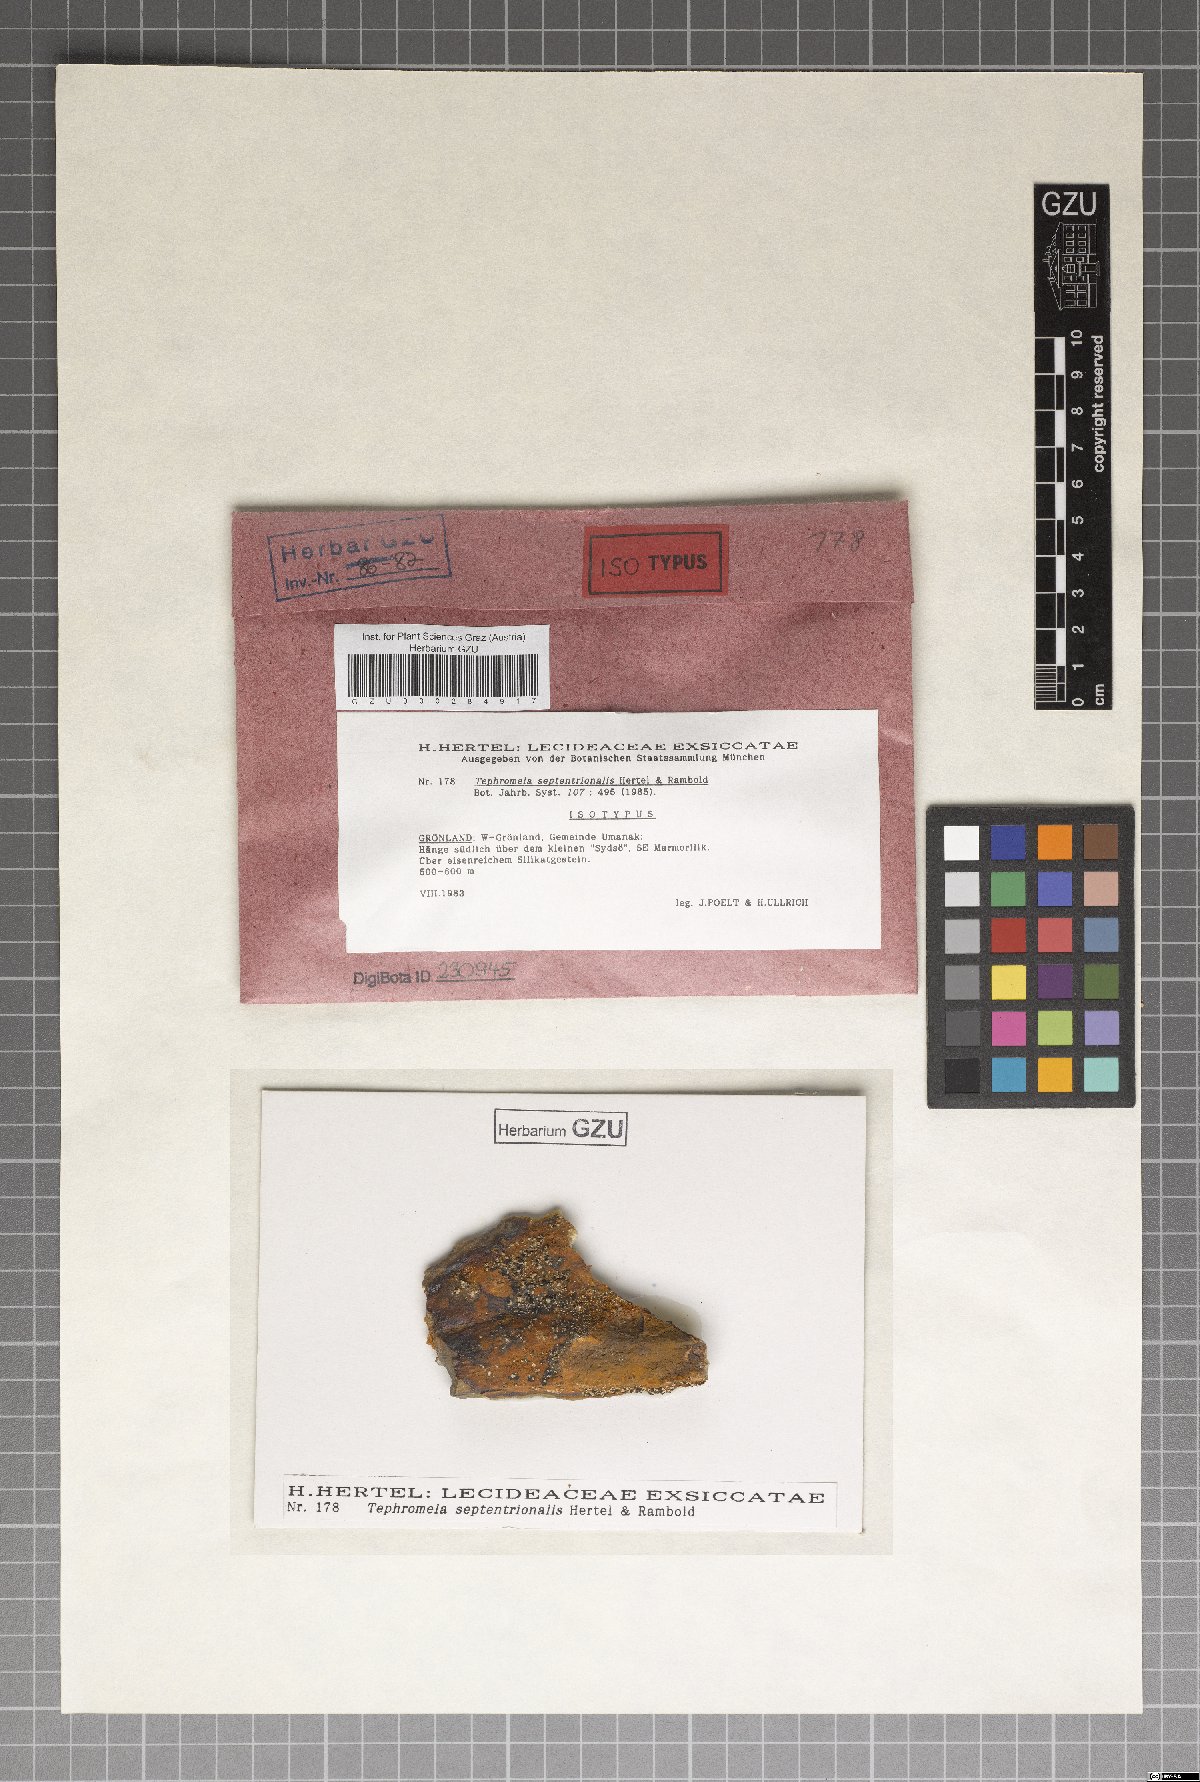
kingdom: Fungi
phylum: Ascomycota
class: Lecanoromycetes
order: Lecanorales
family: Tephromelataceae
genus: Calvitimela
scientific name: Calvitimela septentrionalis
